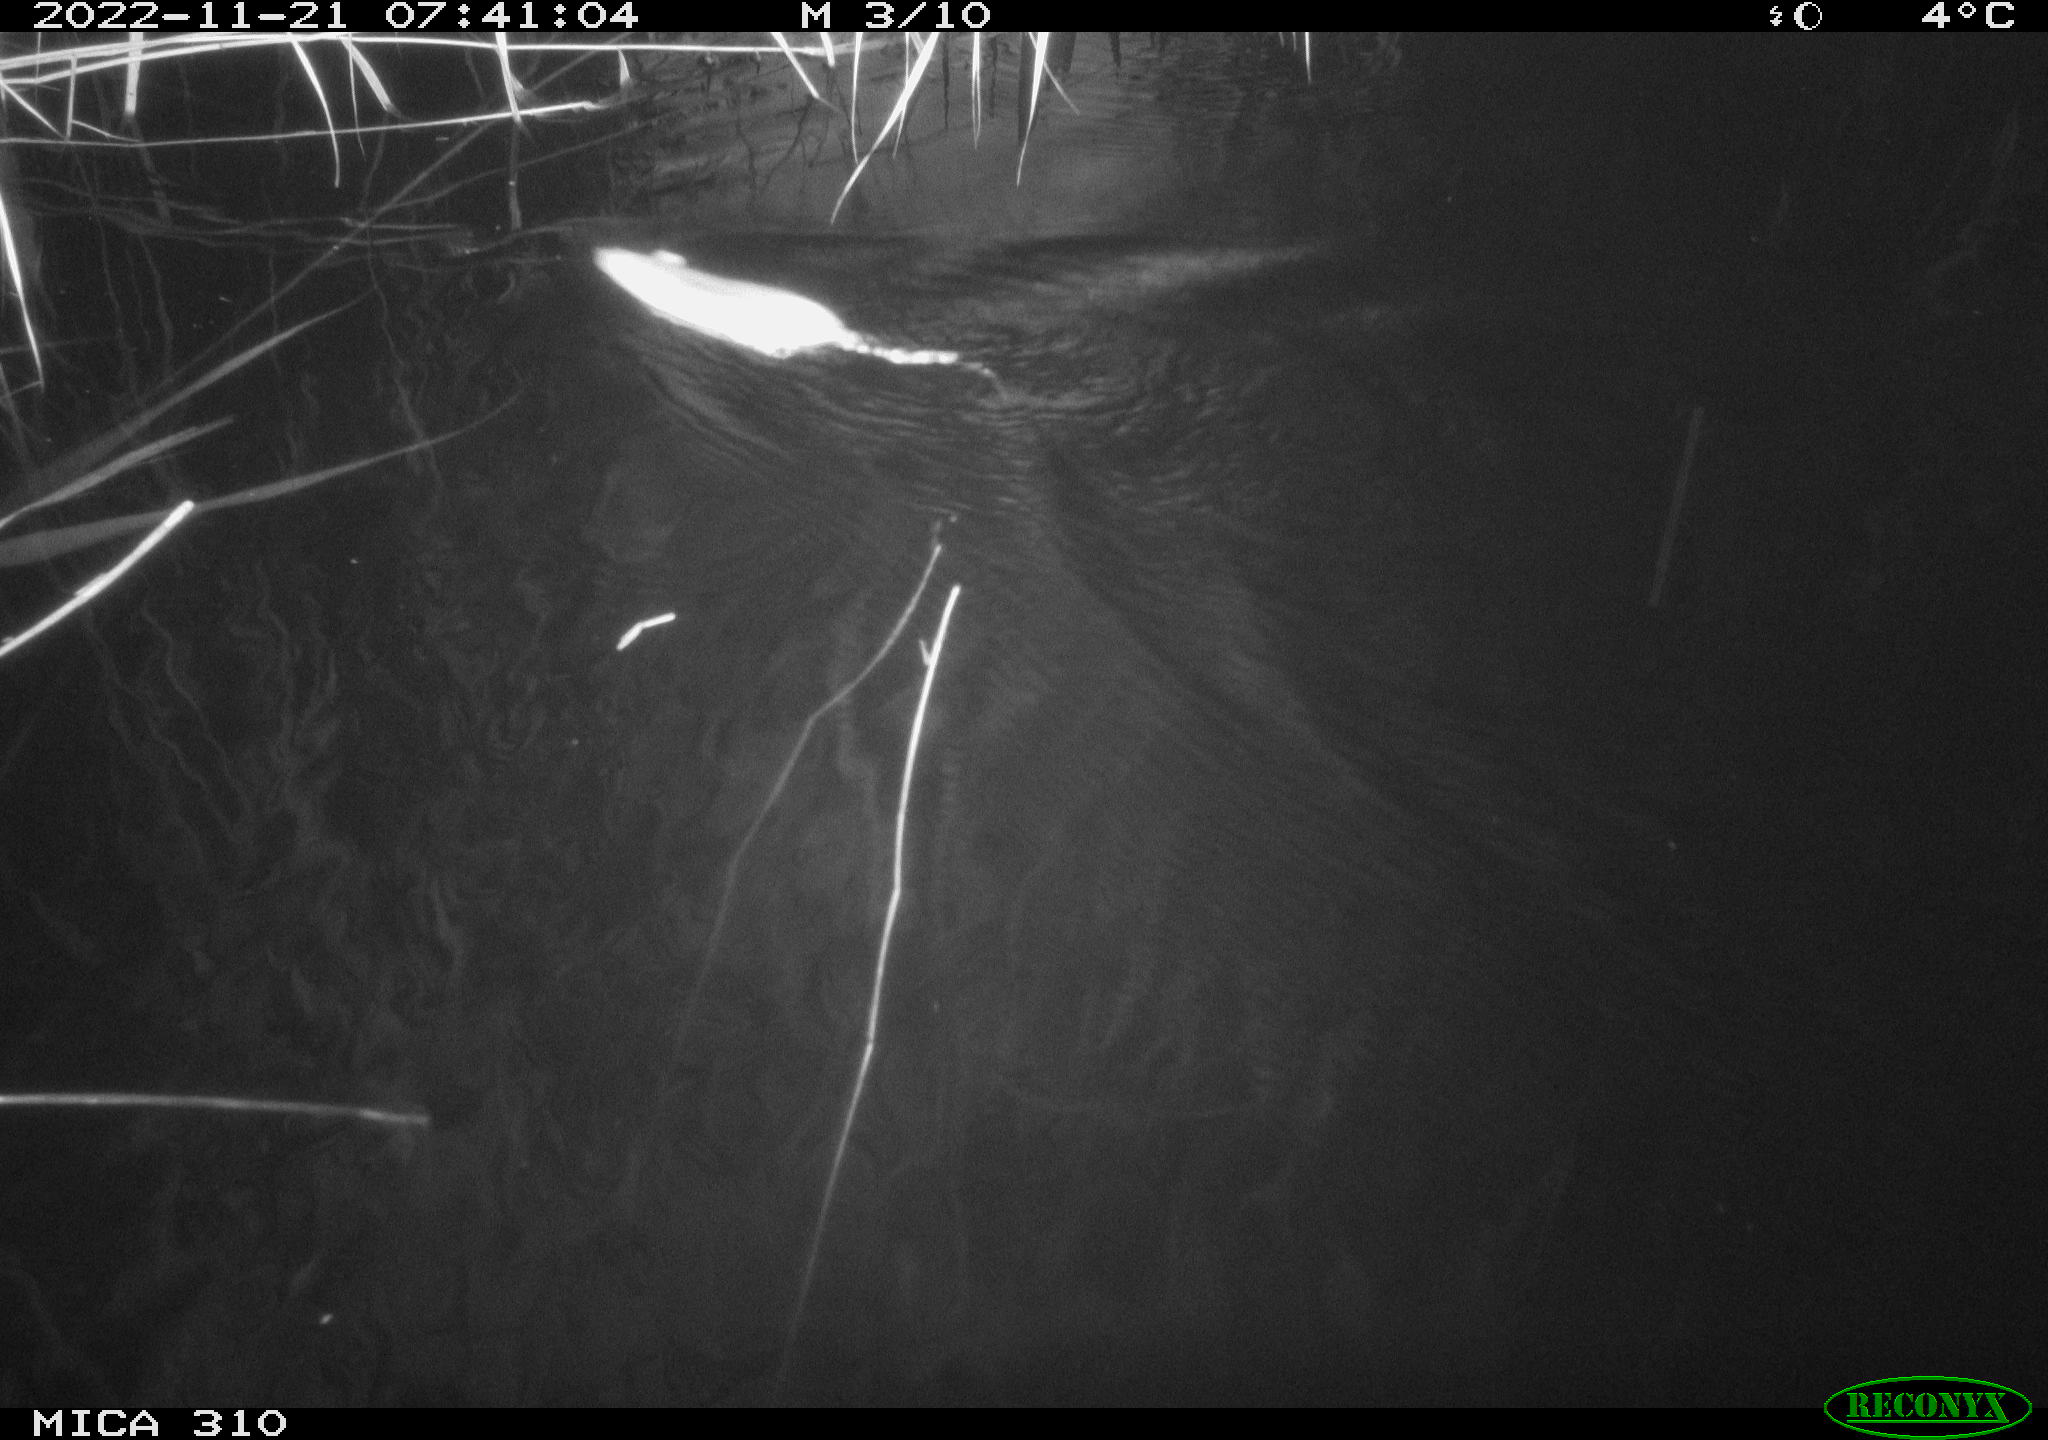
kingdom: Animalia
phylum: Chordata
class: Mammalia
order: Rodentia
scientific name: Rodentia
